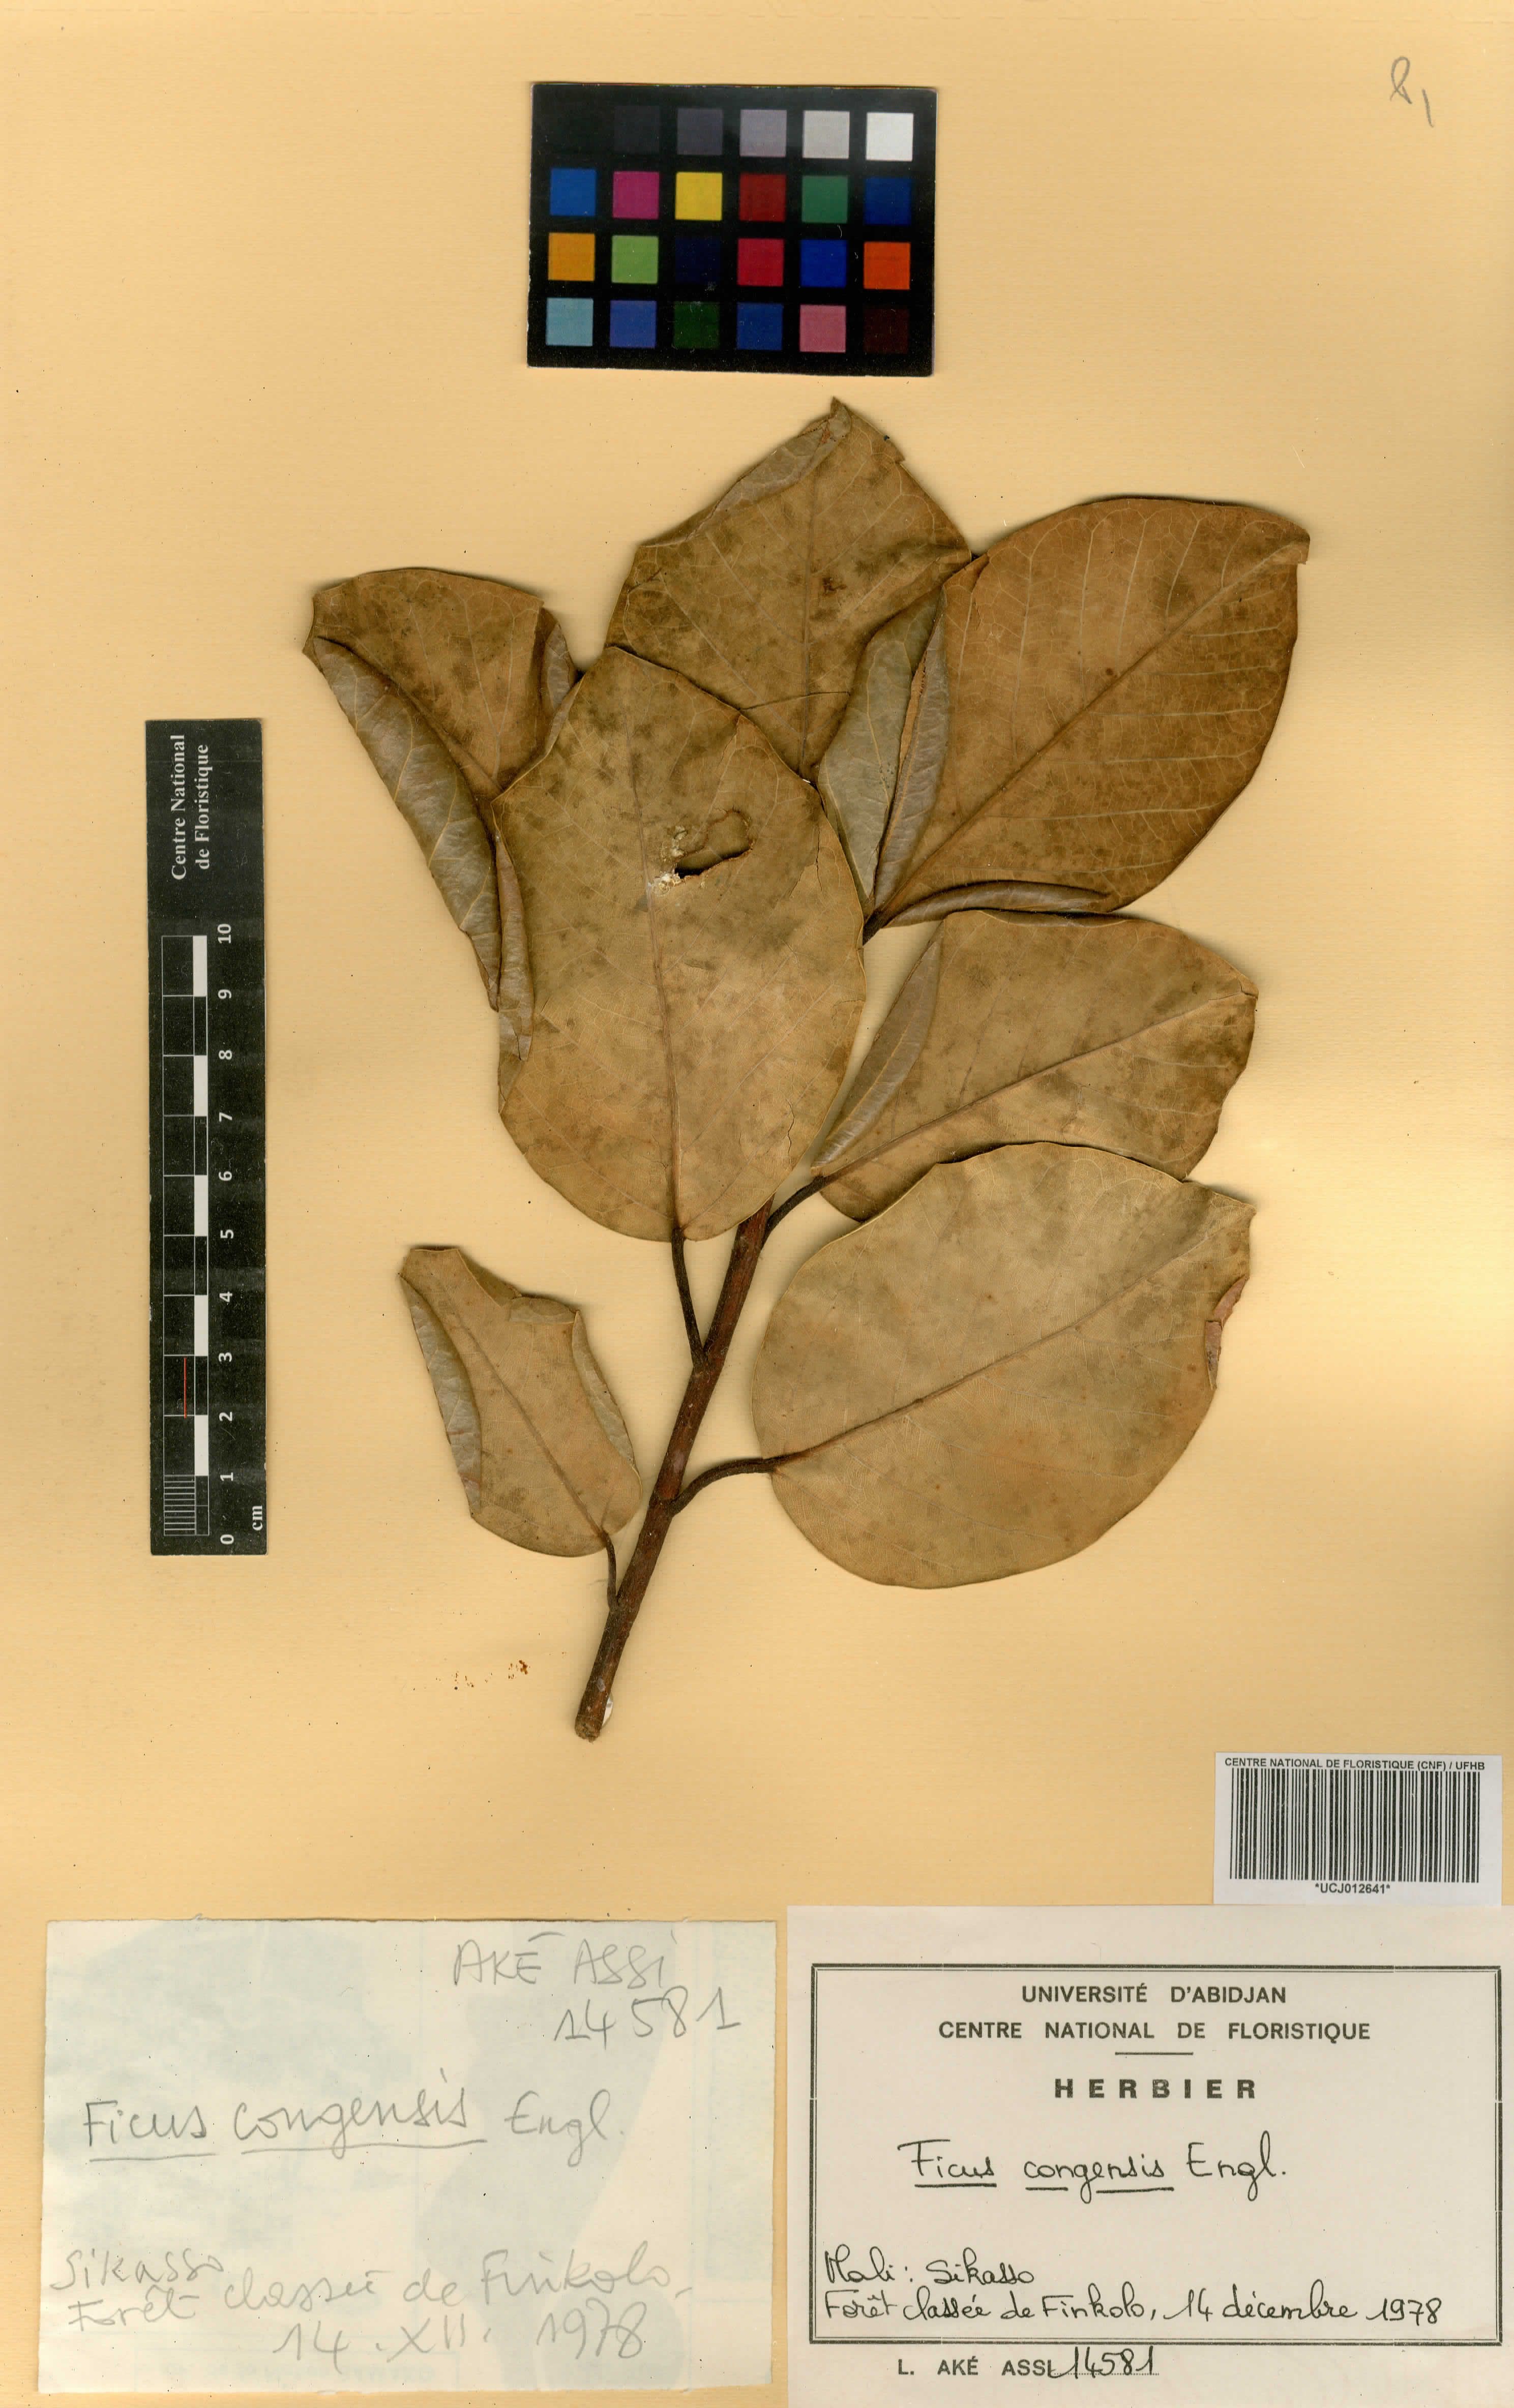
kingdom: Plantae
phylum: Tracheophyta
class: Magnoliopsida
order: Rosales
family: Moraceae
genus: Ficus
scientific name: Ficus trichopoda
